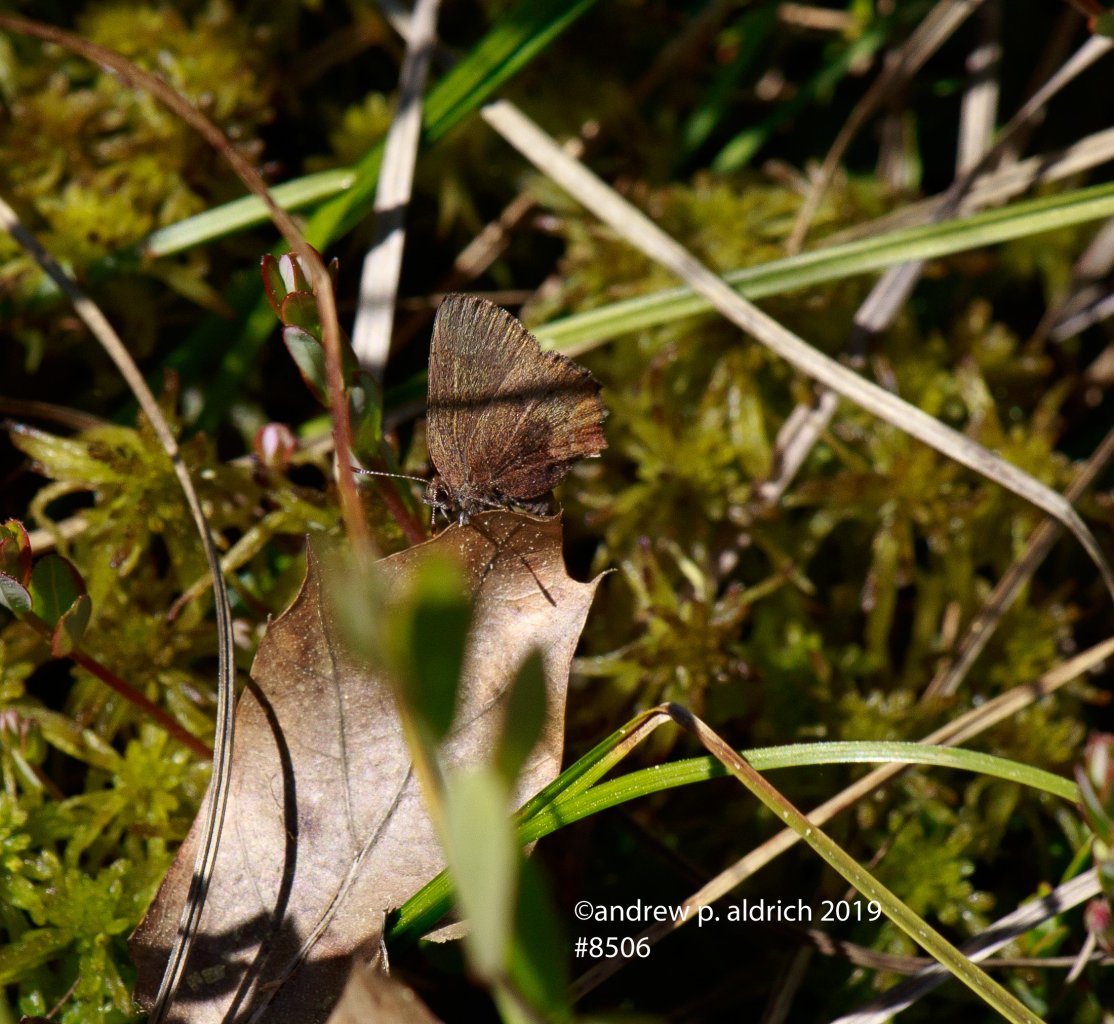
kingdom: Animalia
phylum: Arthropoda
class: Insecta
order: Lepidoptera
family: Lycaenidae
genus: Incisalia
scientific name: Incisalia irioides
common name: Brown Elfin
